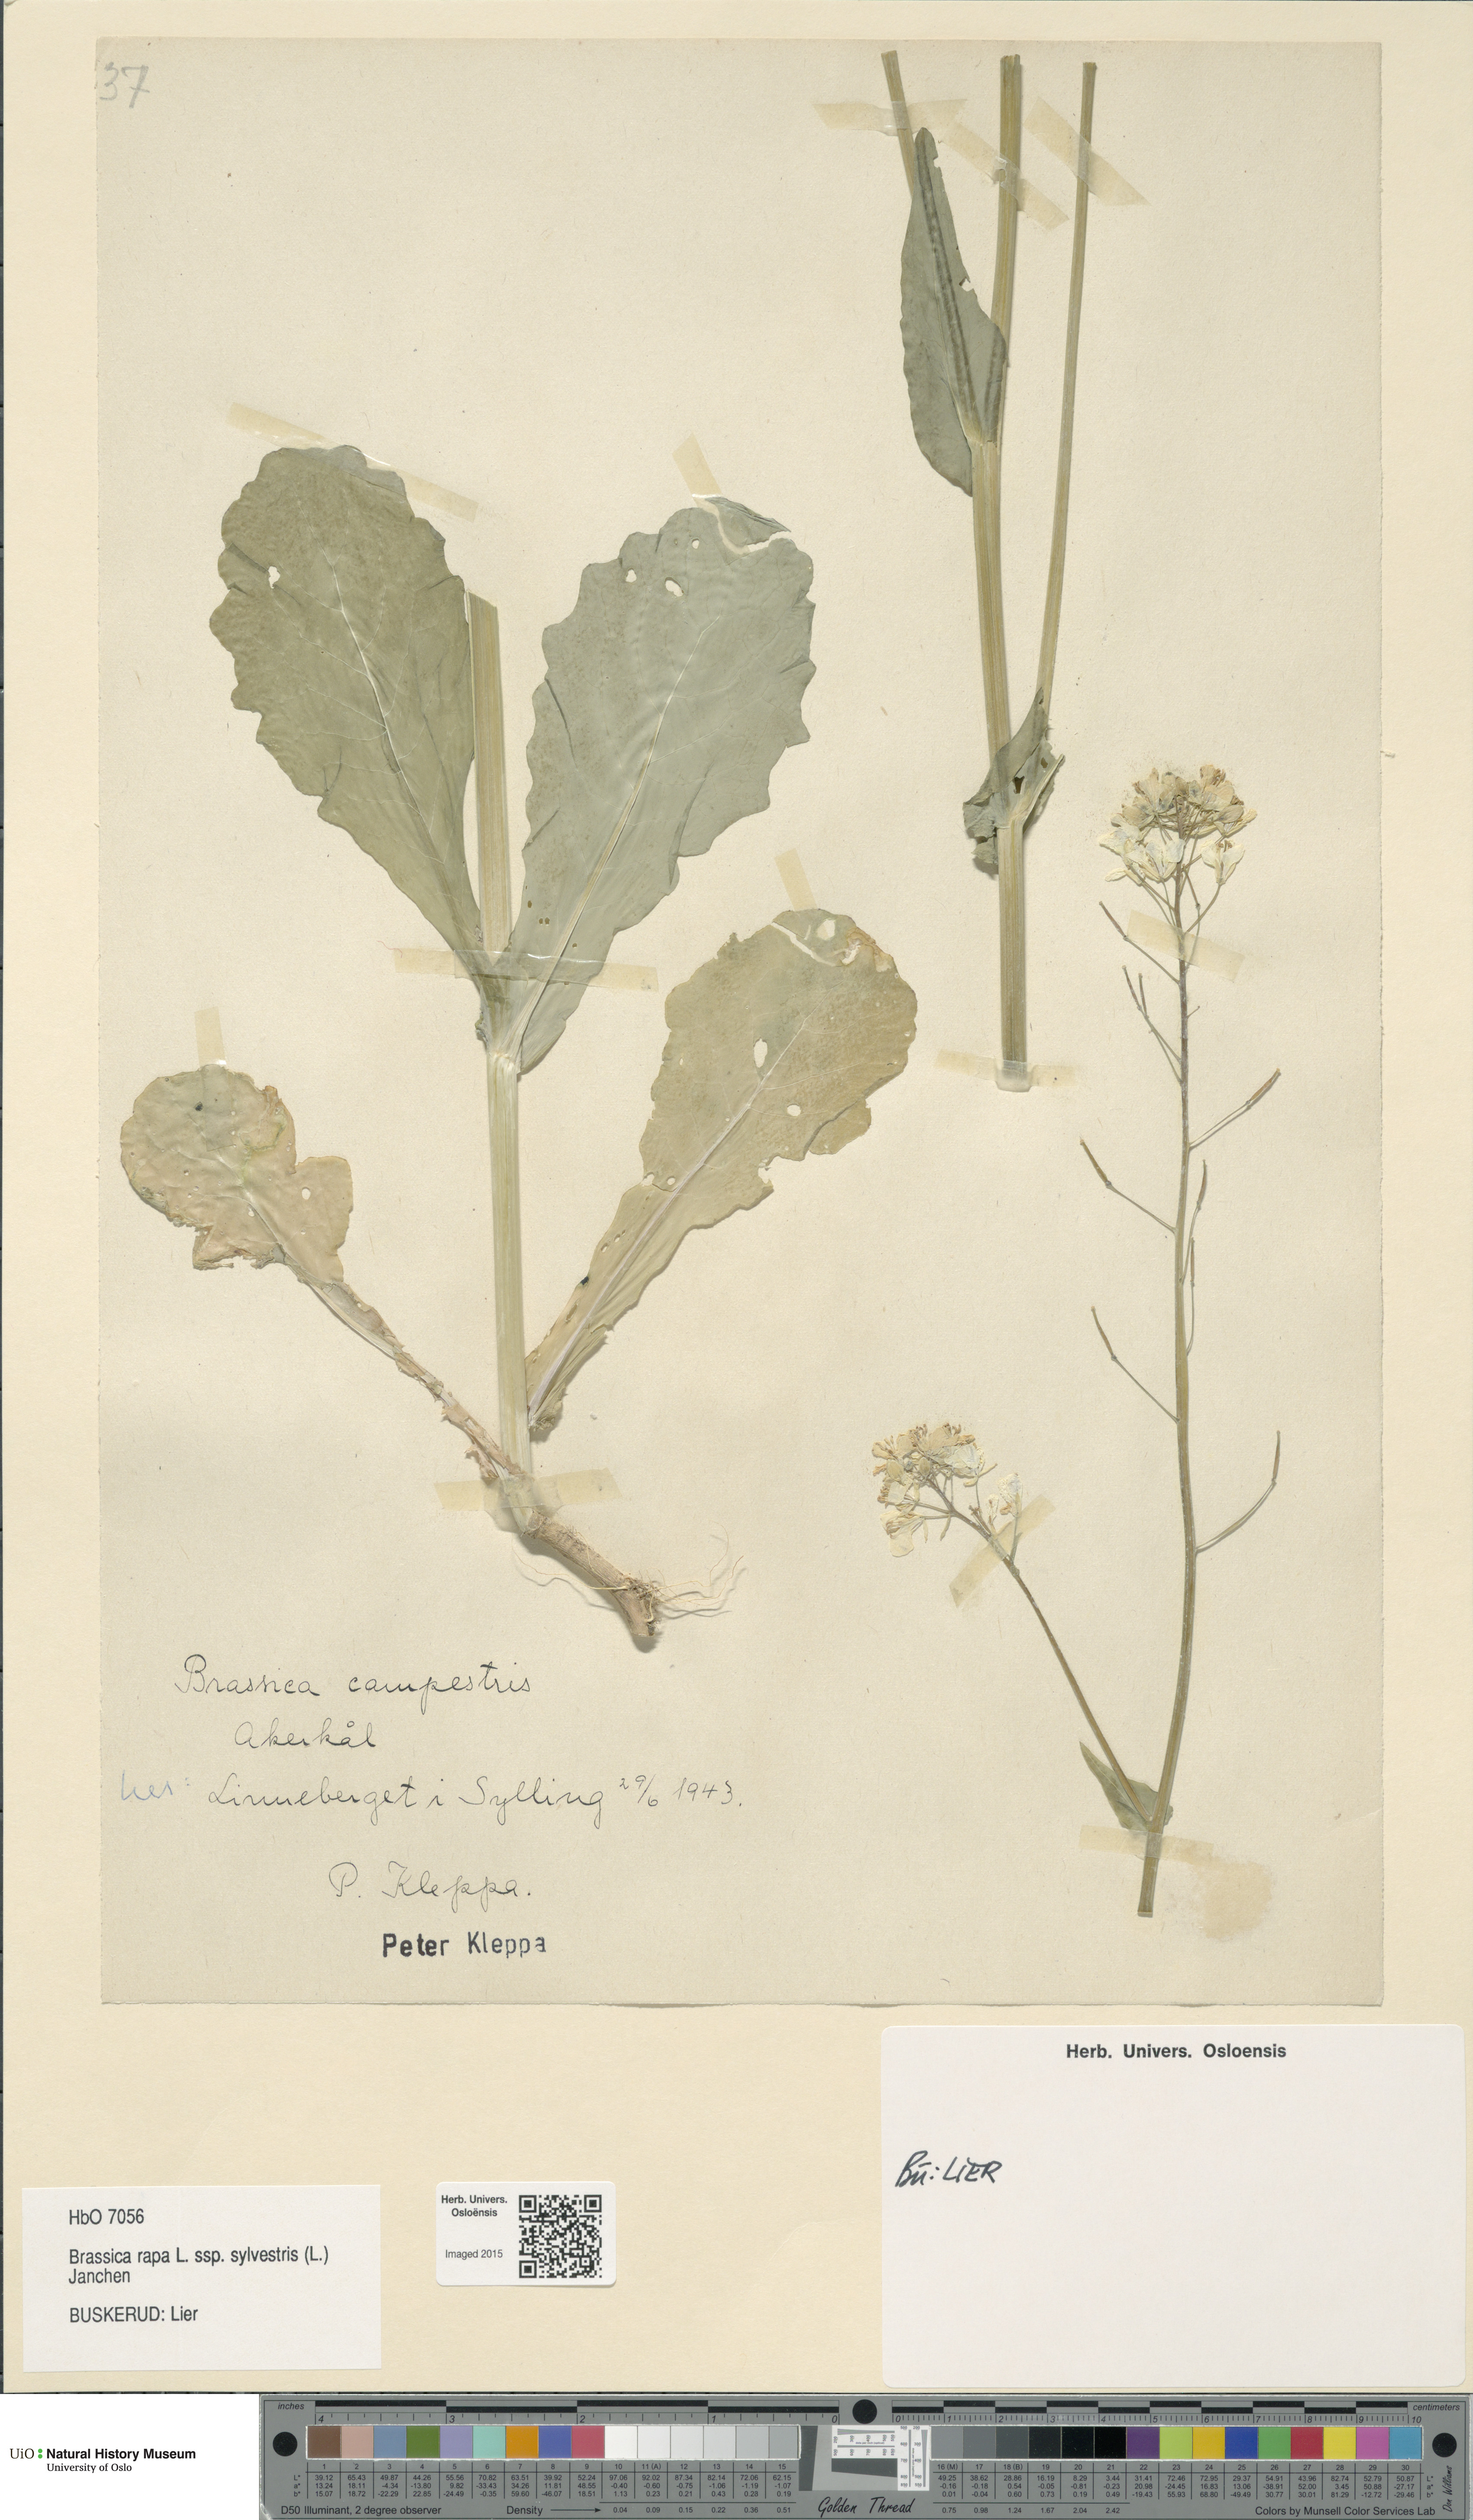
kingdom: Plantae
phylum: Tracheophyta
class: Magnoliopsida
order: Brassicales
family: Brassicaceae
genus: Brassica
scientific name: Brassica rapa
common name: Field mustard
